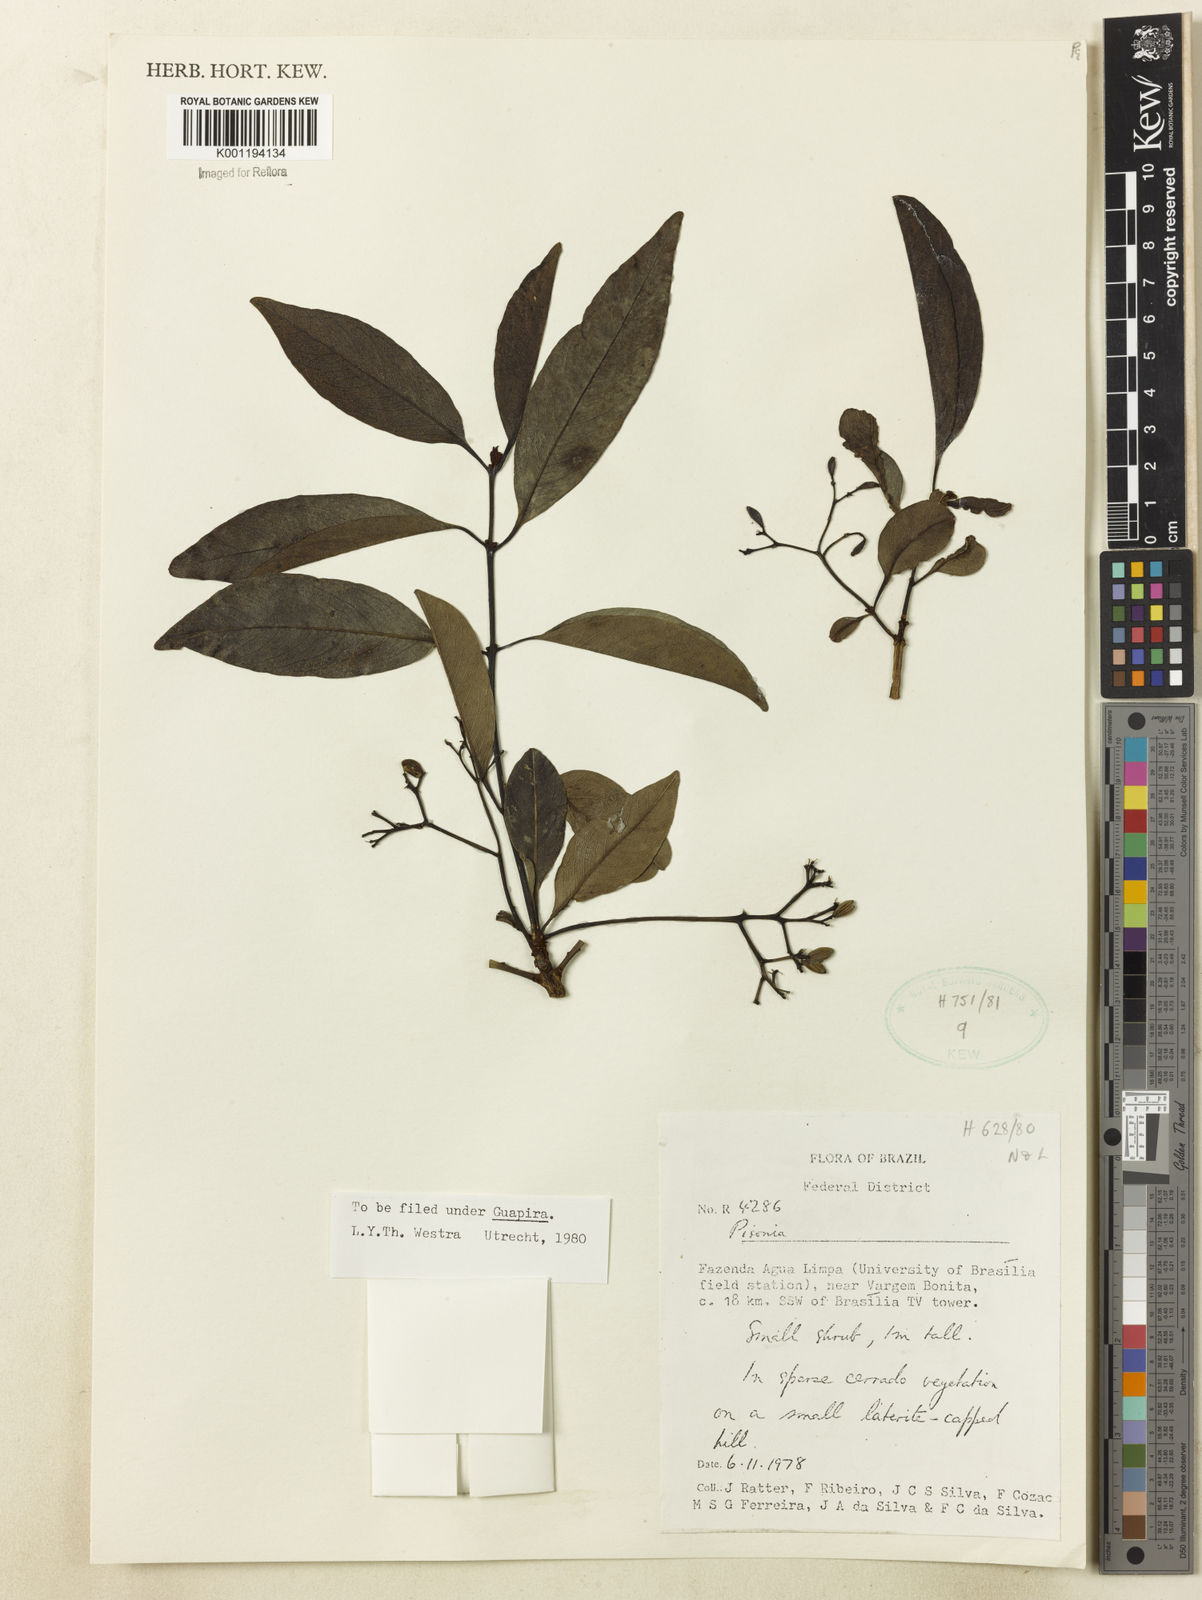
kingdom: Plantae
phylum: Tracheophyta
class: Magnoliopsida
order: Caryophyllales
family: Nyctaginaceae
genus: Guapira
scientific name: Guapira
